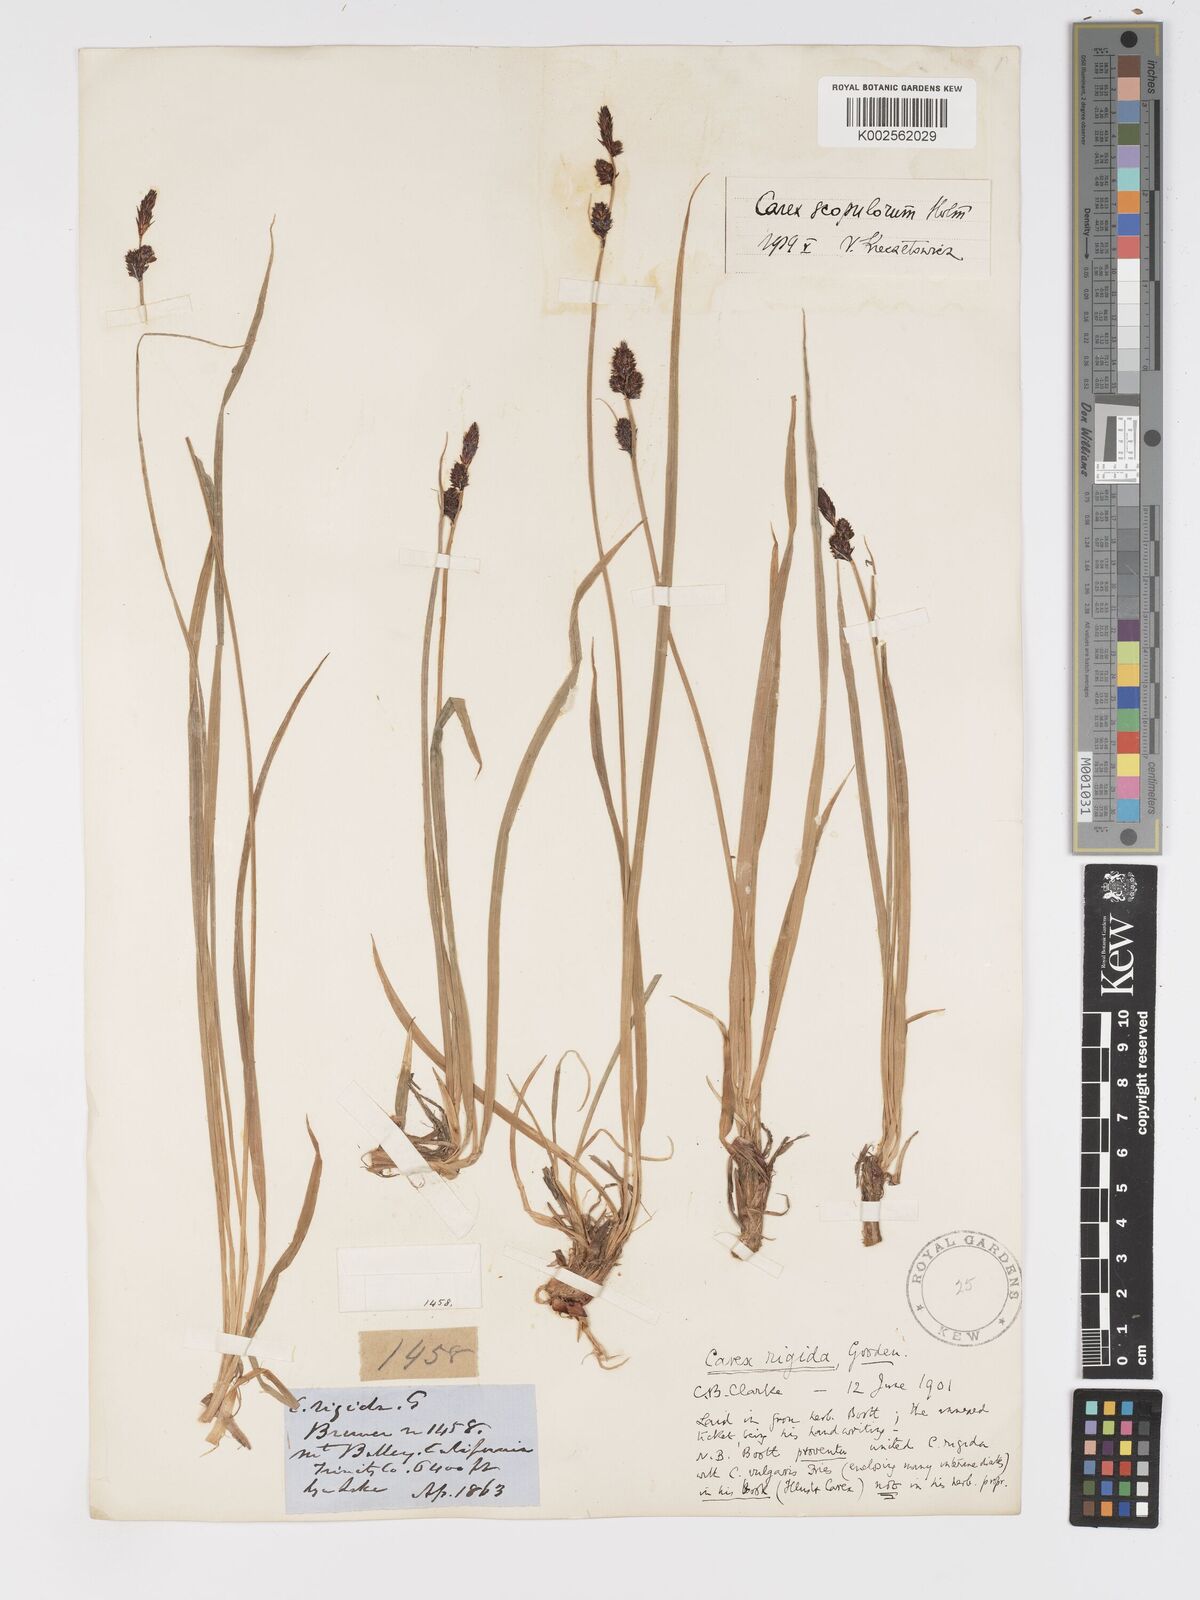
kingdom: Plantae
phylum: Tracheophyta
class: Liliopsida
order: Poales
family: Cyperaceae
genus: Carex
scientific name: Carex scopulorum
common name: Holm's rocky mountain sedge
